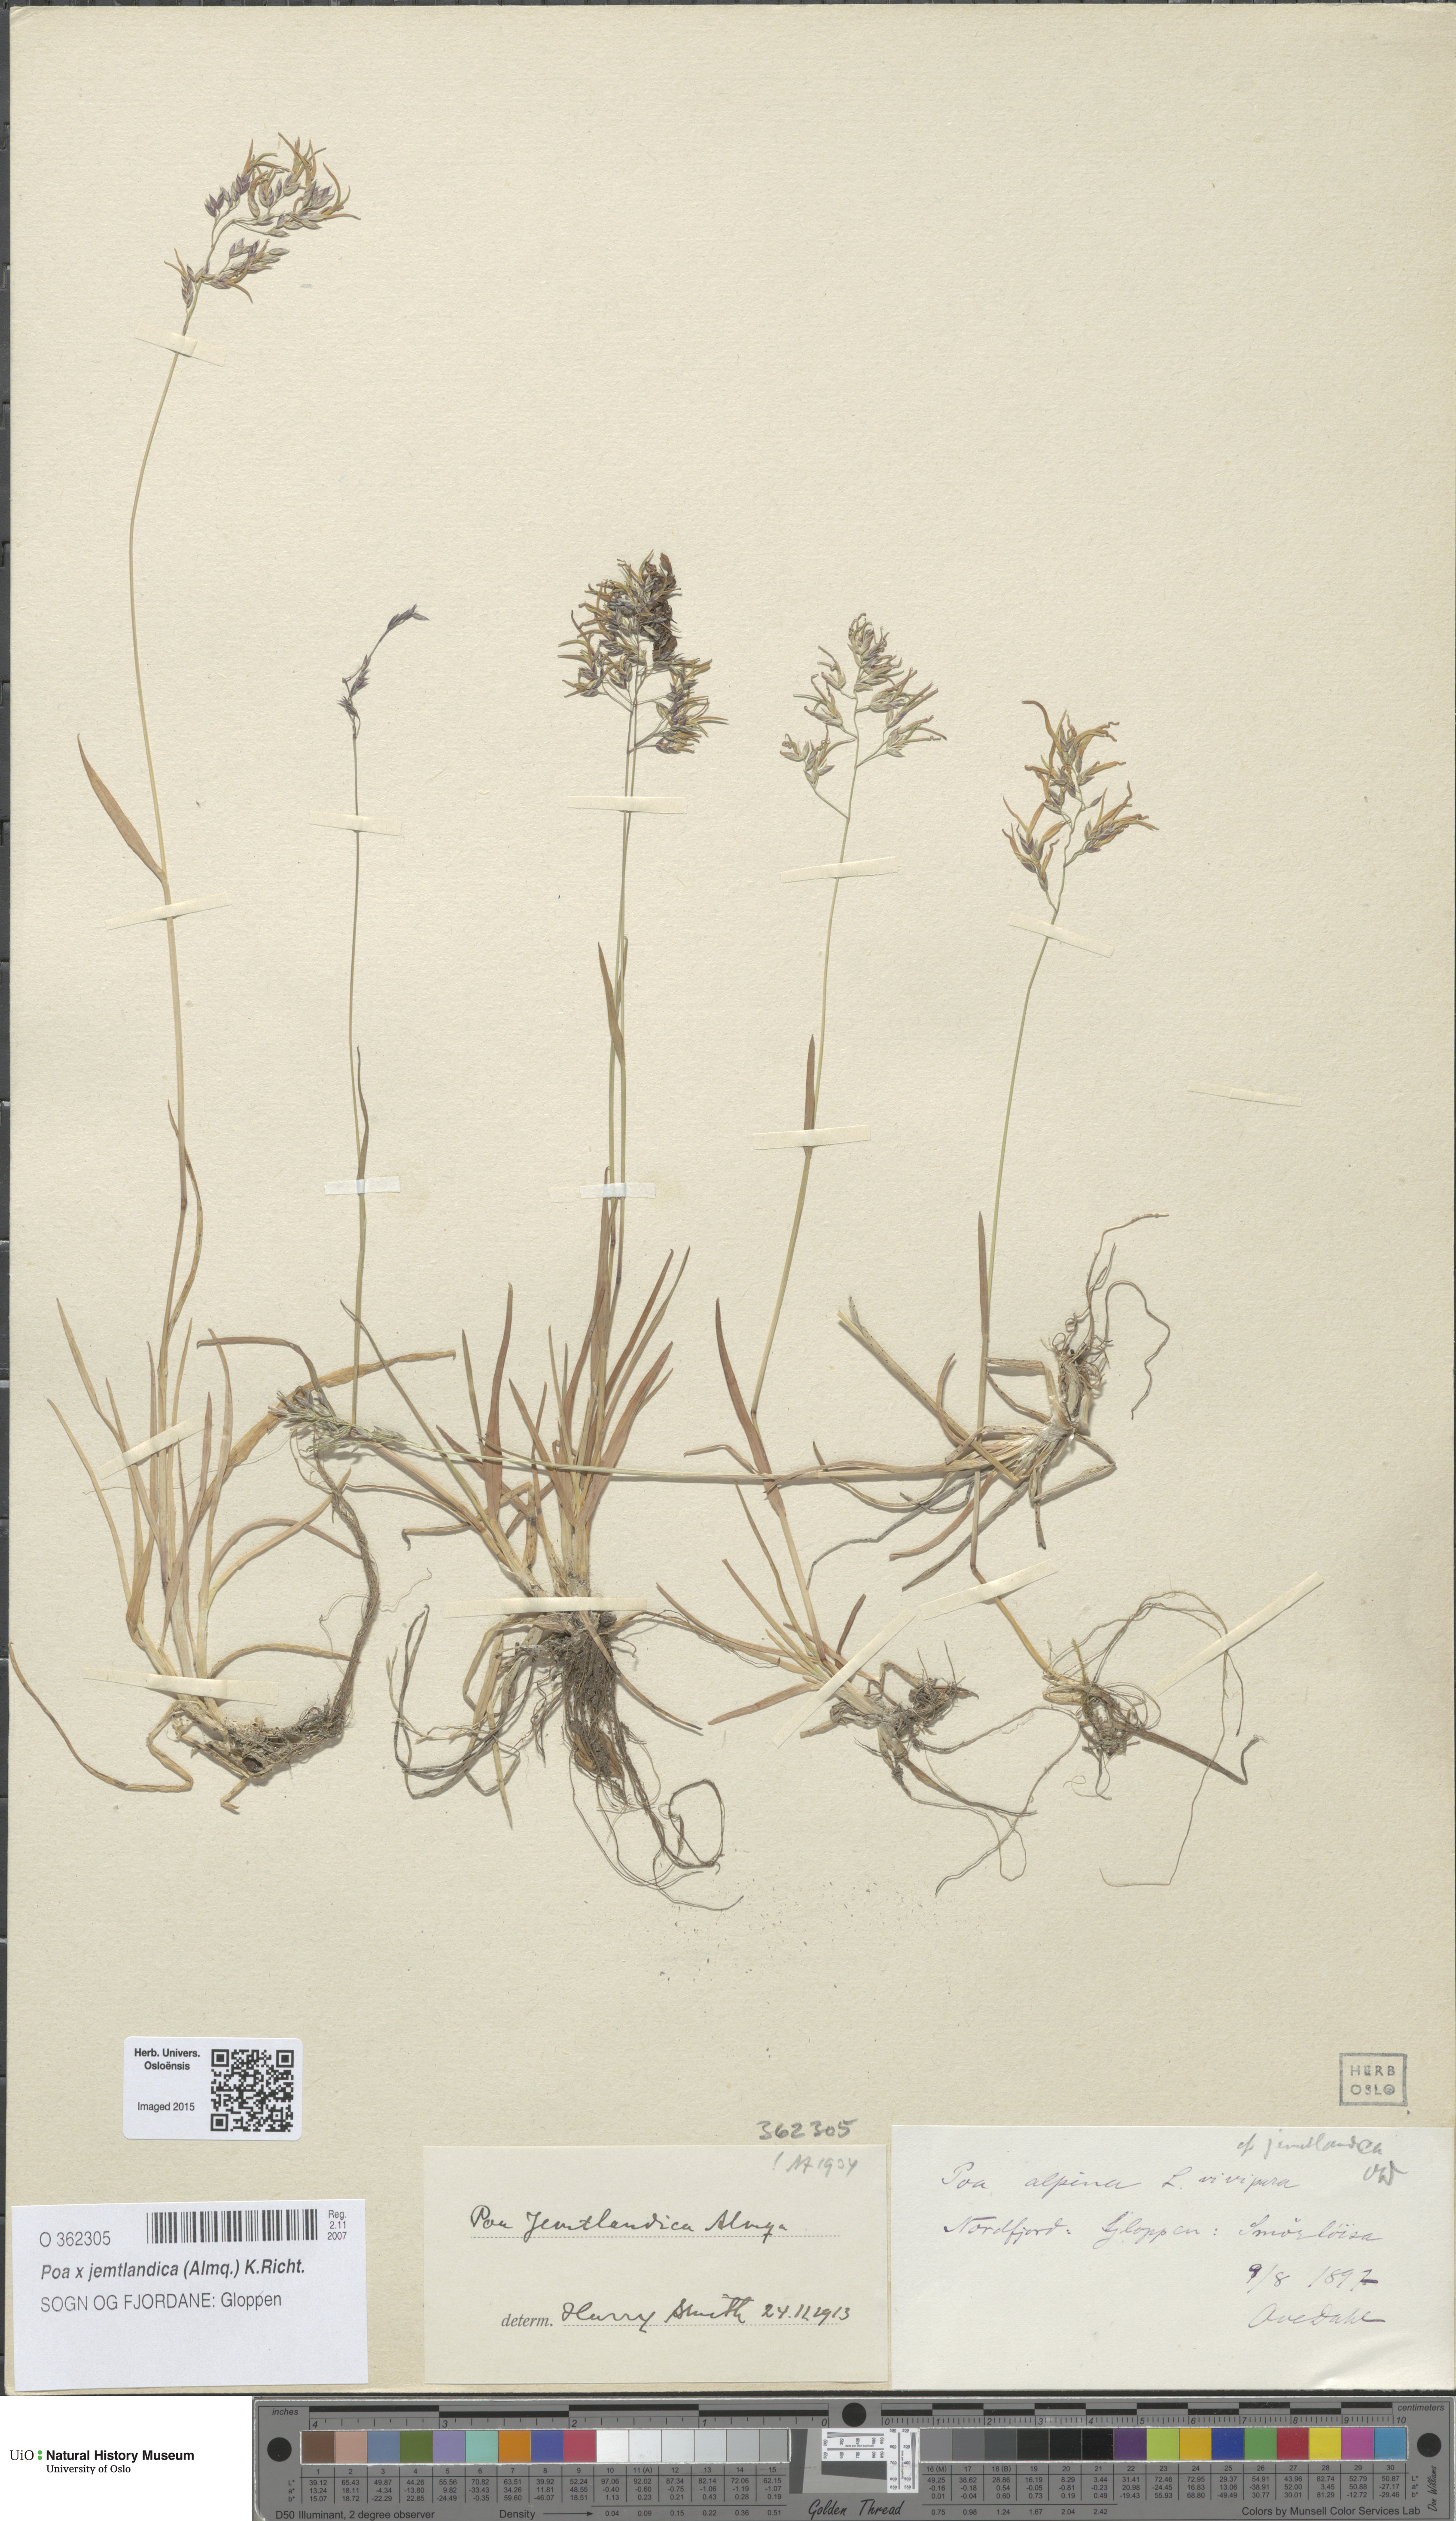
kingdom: Plantae
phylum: Tracheophyta
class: Liliopsida
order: Poales
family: Poaceae
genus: Poa
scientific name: Poa jemtlandica
